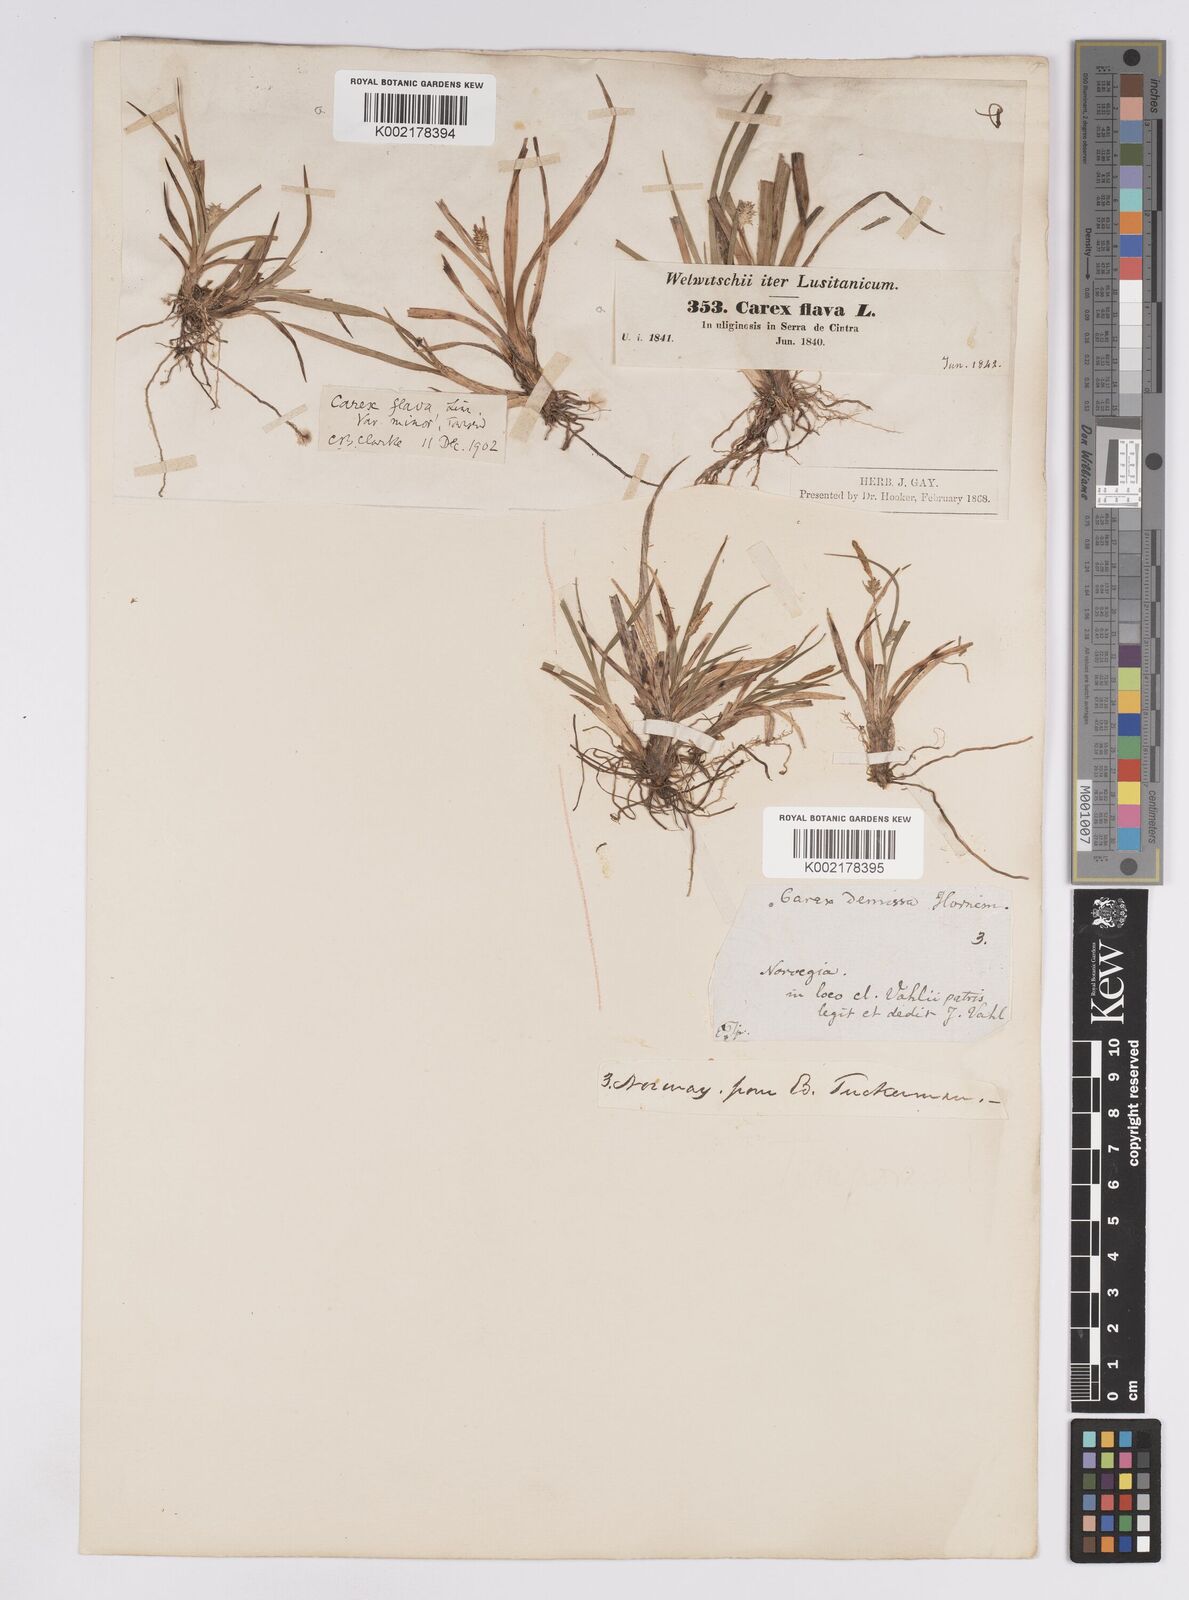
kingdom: Plantae
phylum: Tracheophyta
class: Liliopsida
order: Poales
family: Cyperaceae
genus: Carex
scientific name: Carex demissa
